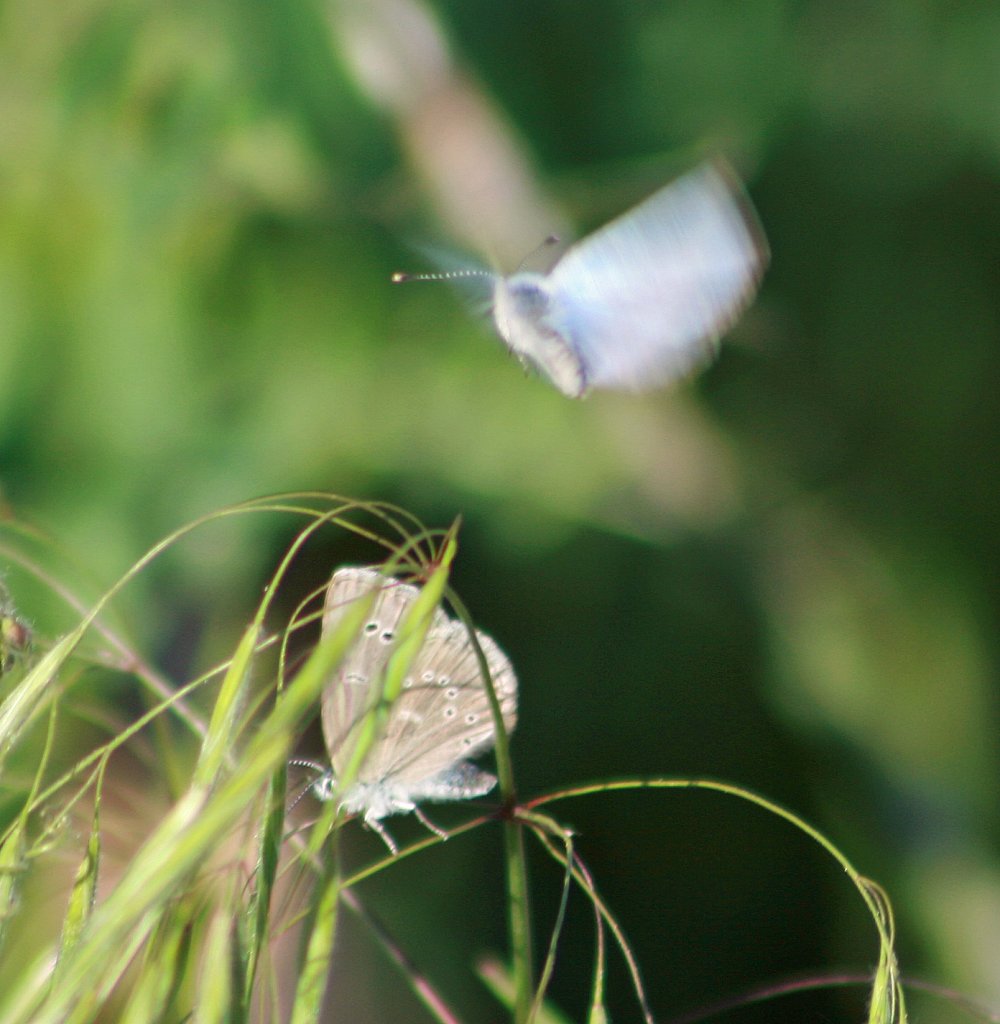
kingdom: Animalia
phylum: Arthropoda
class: Insecta
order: Lepidoptera
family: Lycaenidae
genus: Glaucopsyche
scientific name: Glaucopsyche lygdamus
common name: Silvery Blue
